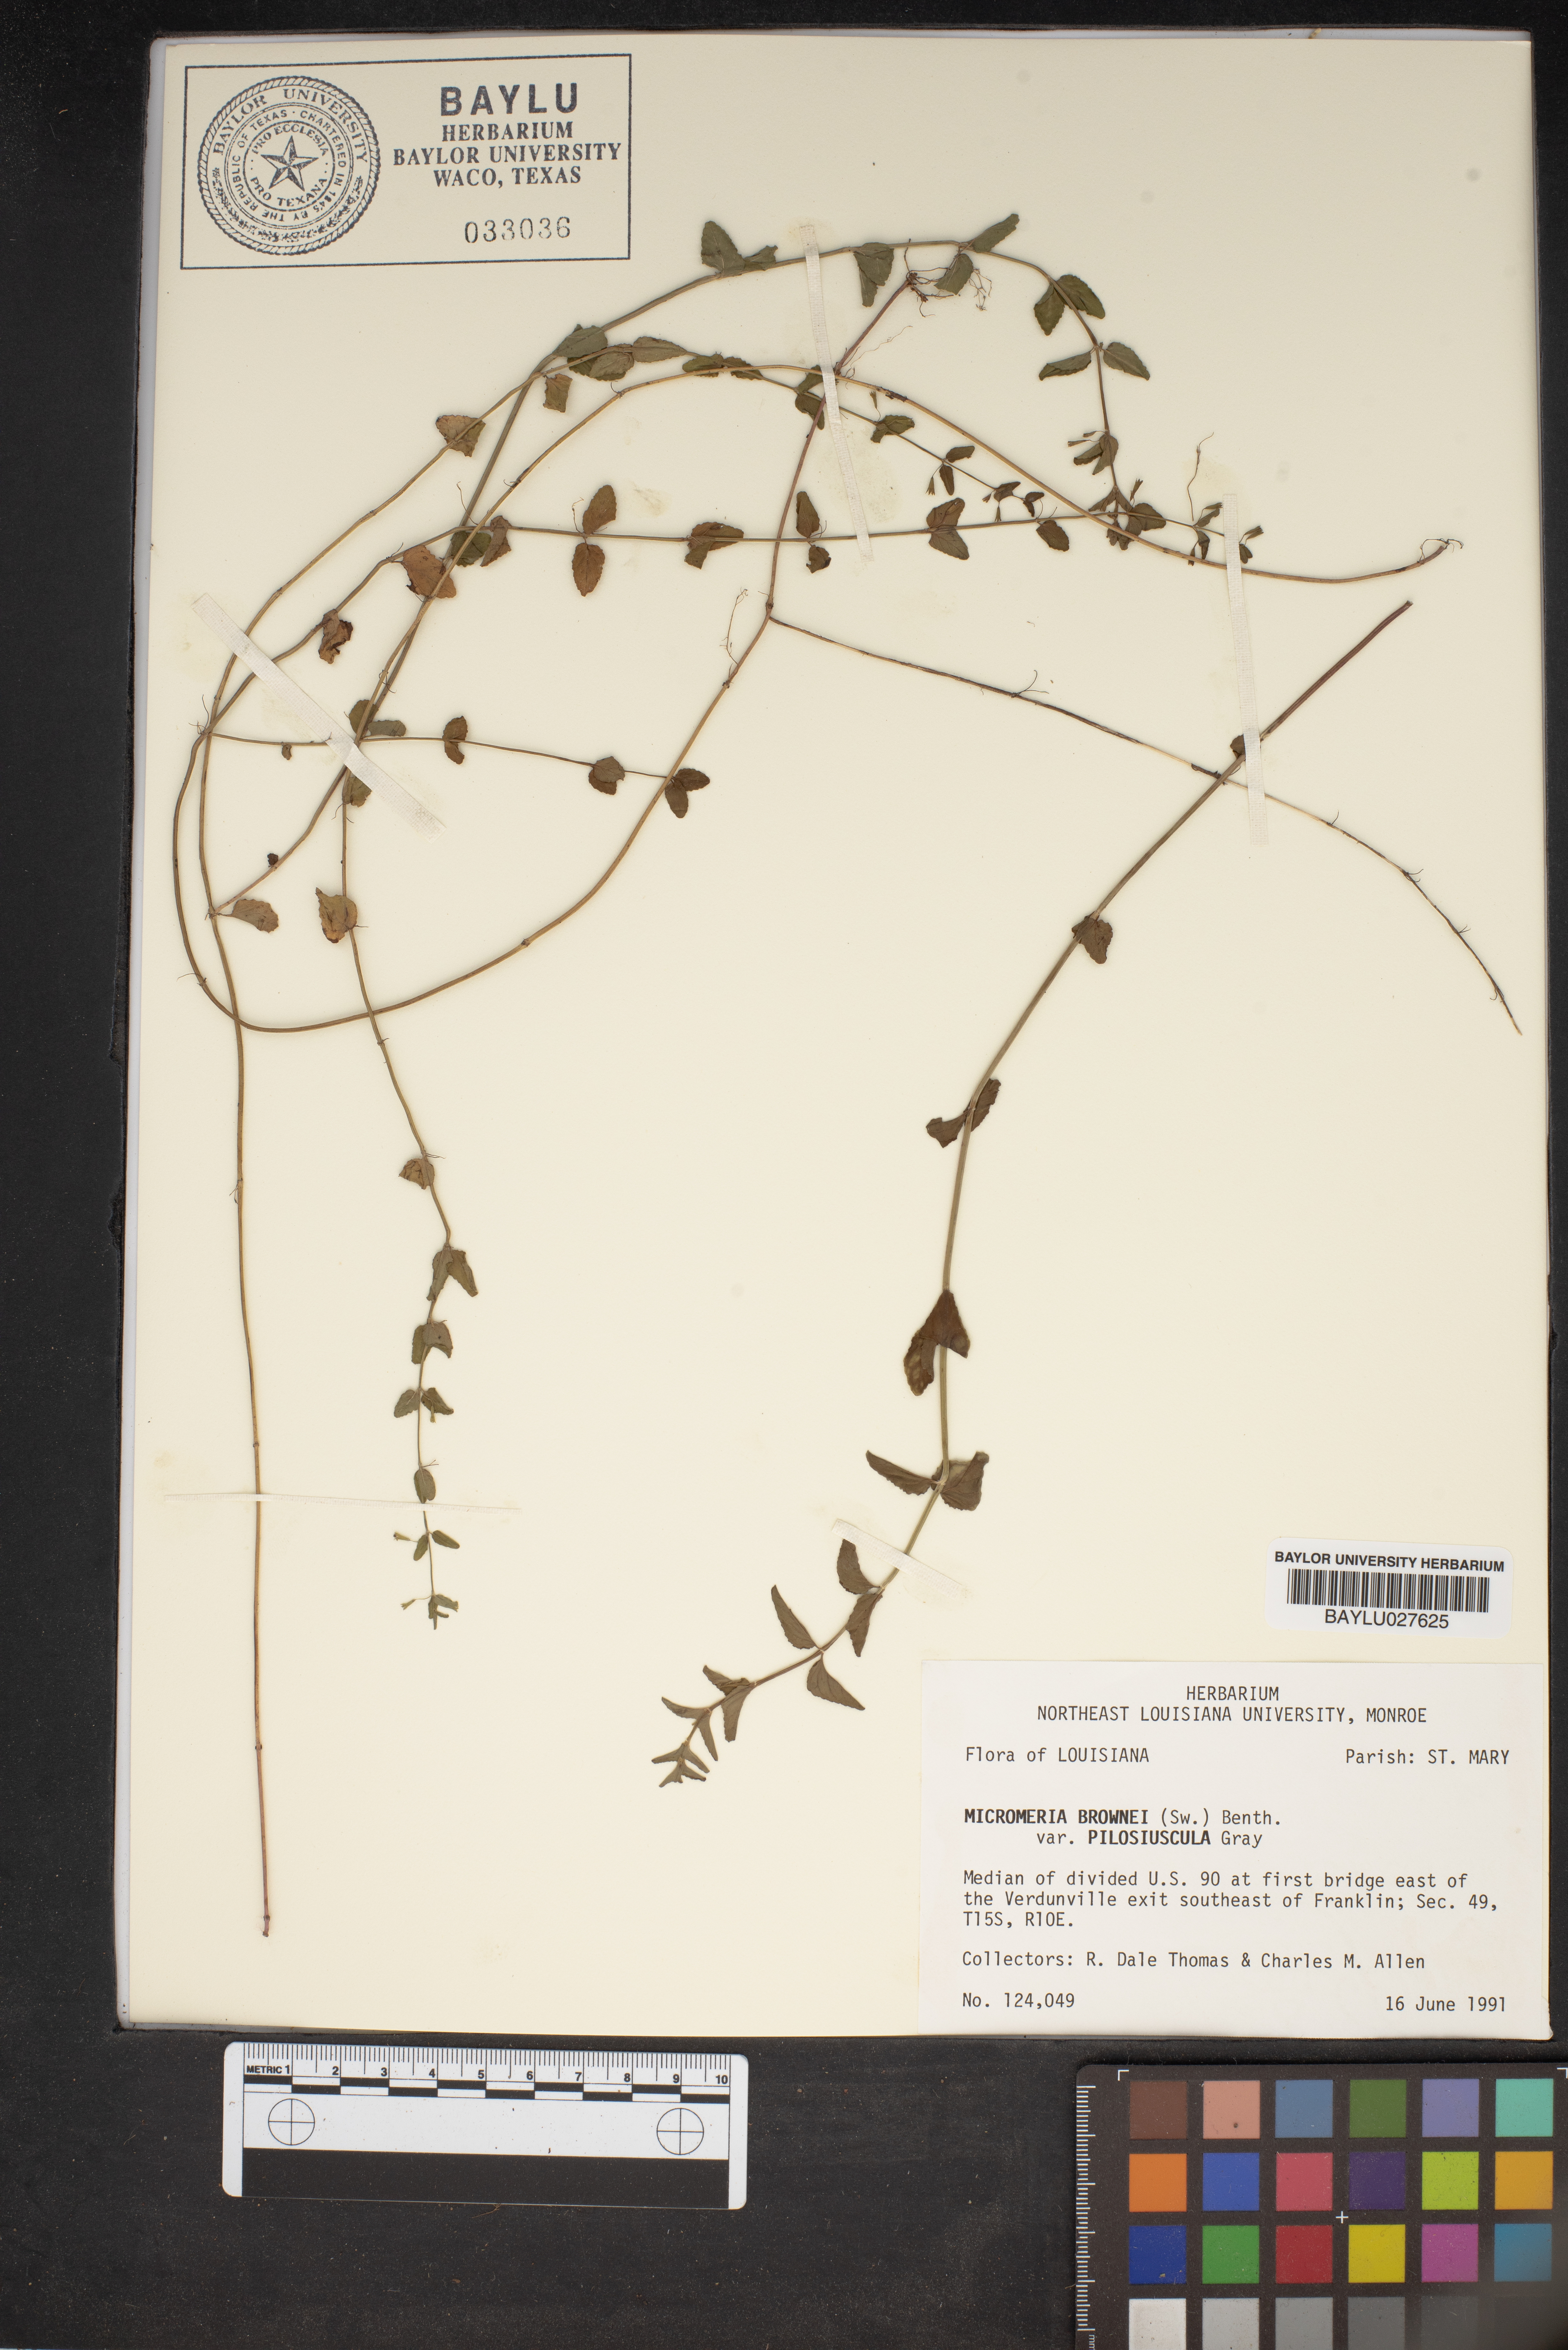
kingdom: Plantae
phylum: Tracheophyta
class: Magnoliopsida
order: Lamiales
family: Lamiaceae
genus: Clinopodium
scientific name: Clinopodium brownei
